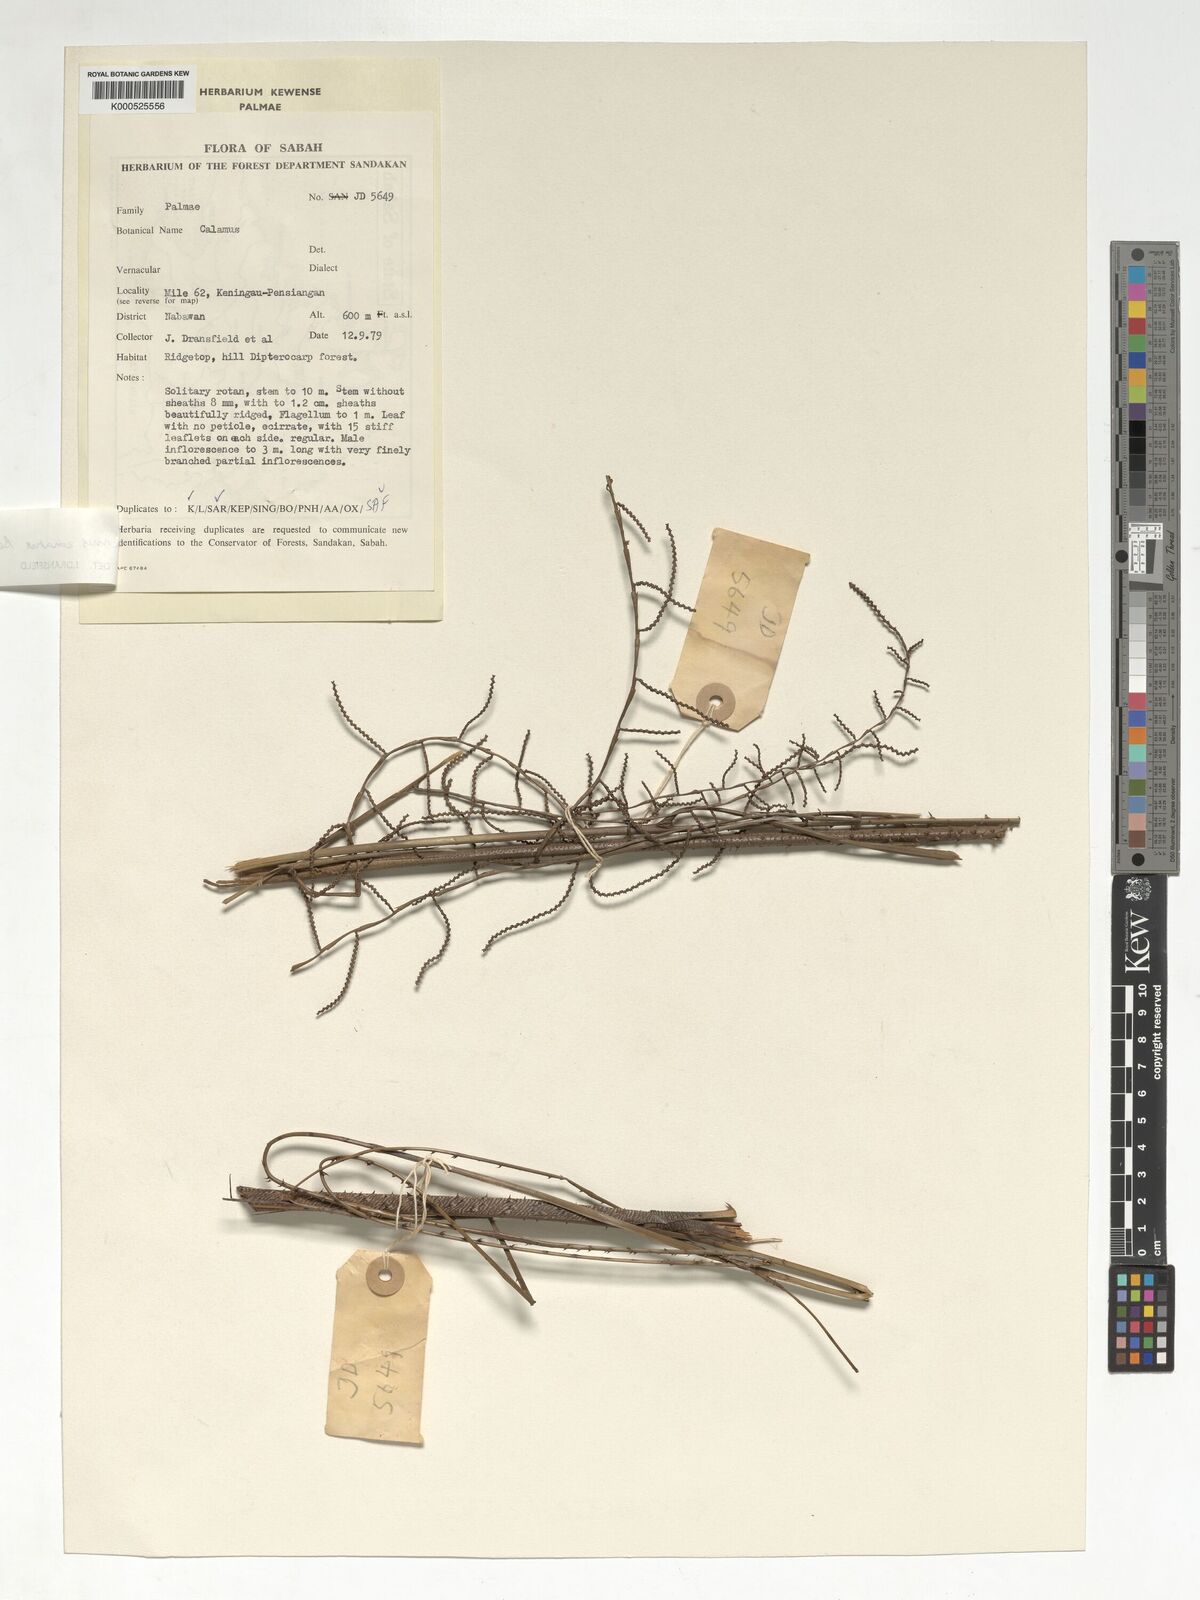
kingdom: Plantae
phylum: Tracheophyta
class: Liliopsida
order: Arecales
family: Arecaceae
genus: Calamus
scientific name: Calamus zonatus
